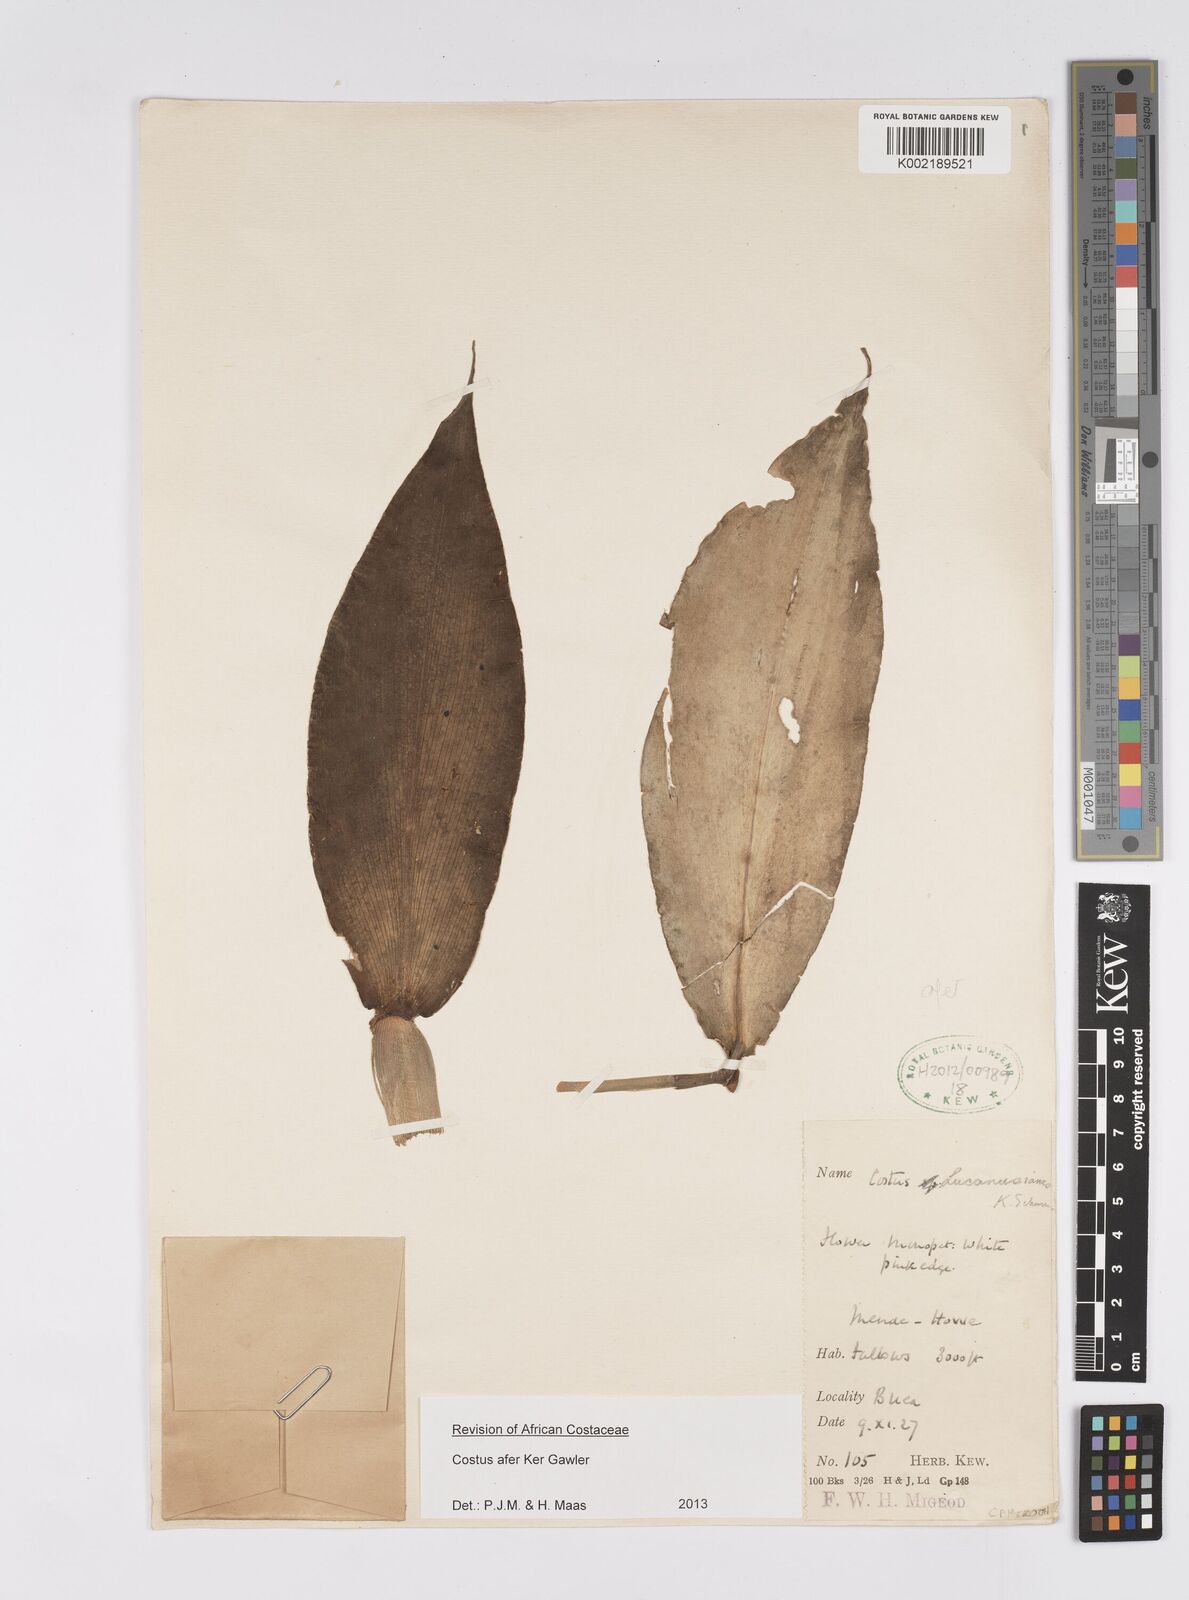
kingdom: Plantae
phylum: Tracheophyta
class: Liliopsida
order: Zingiberales
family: Costaceae
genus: Costus
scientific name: Costus afer
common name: Spiral-ginger
